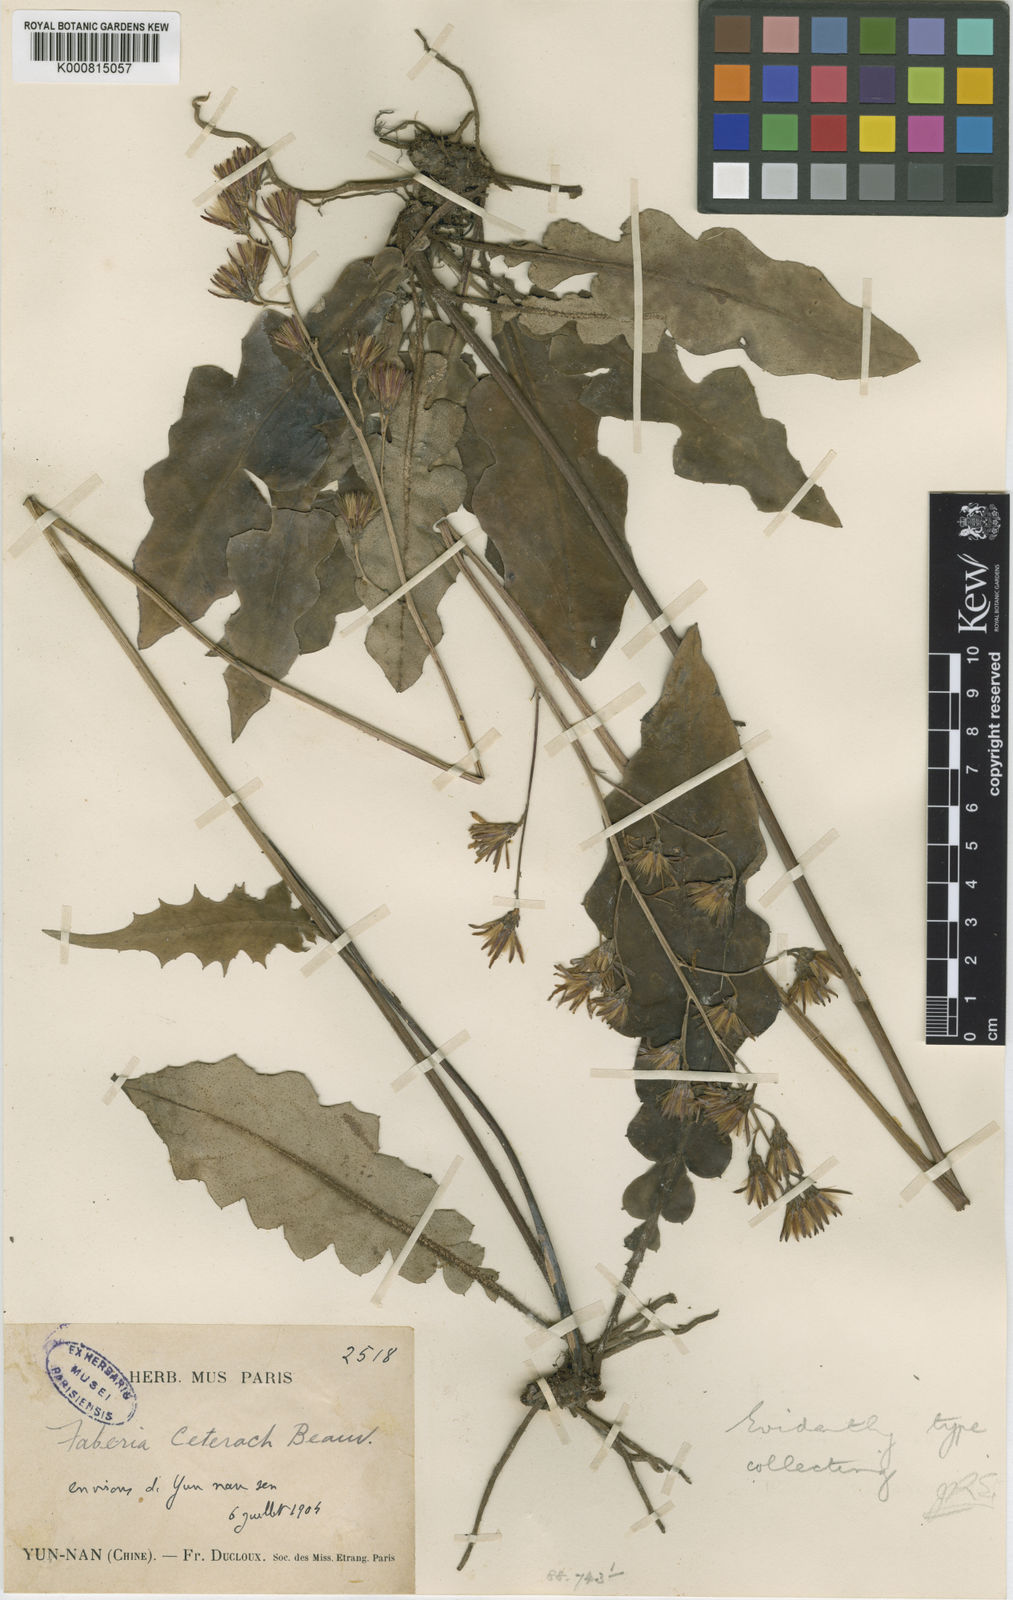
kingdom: Plantae
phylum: Tracheophyta
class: Magnoliopsida
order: Asterales
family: Asteraceae
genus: Prenanthes
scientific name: Prenanthes
